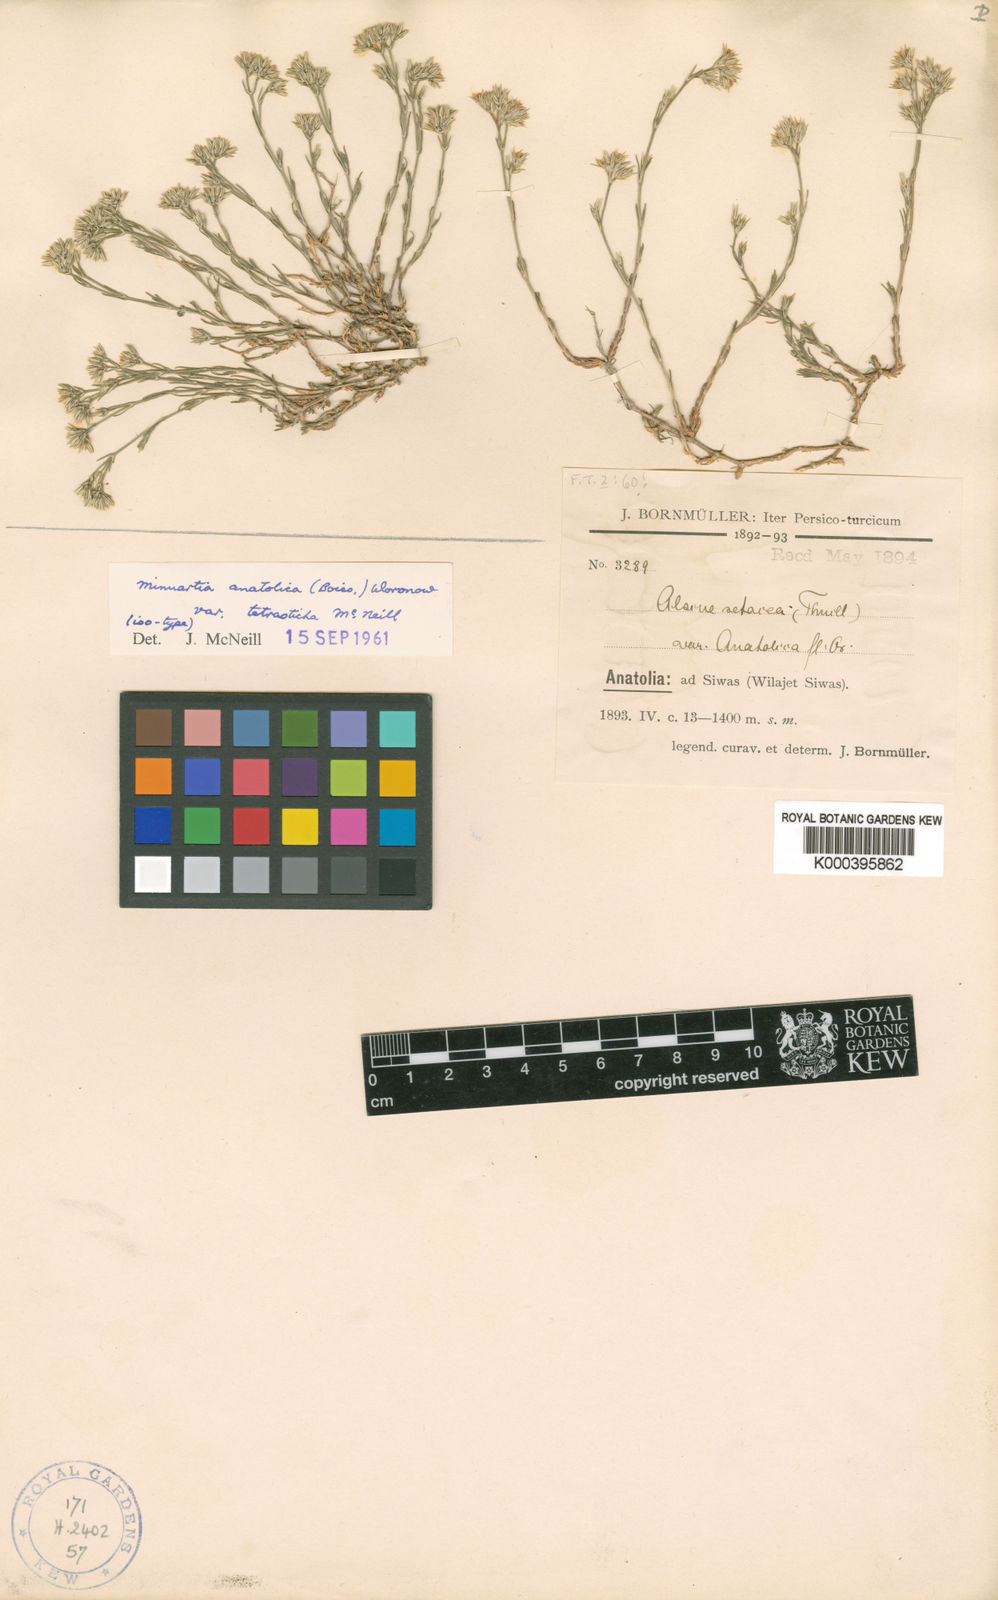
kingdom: Plantae
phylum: Tracheophyta
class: Magnoliopsida
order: Caryophyllales
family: Caryophyllaceae
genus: Minuartia
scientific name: Minuartia
